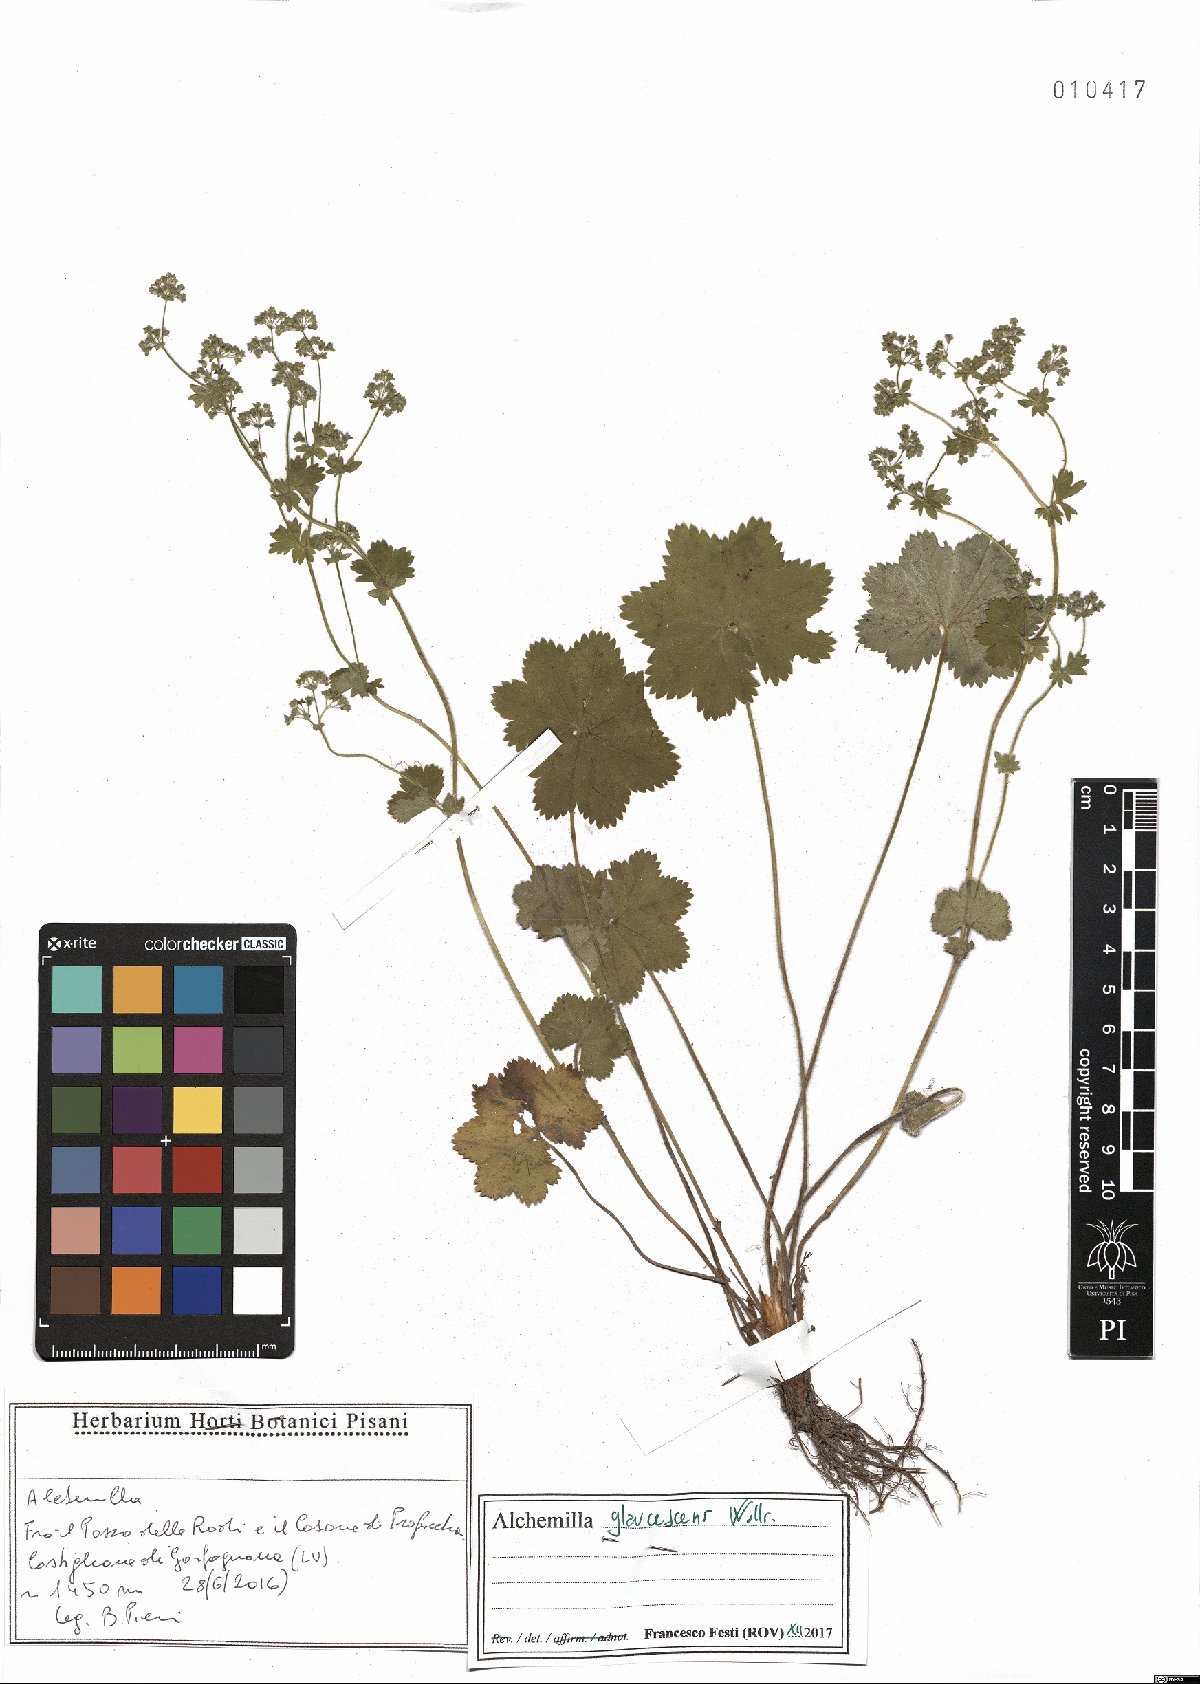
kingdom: Plantae
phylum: Tracheophyta
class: Magnoliopsida
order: Rosales
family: Rosaceae
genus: Alchemilla
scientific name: Alchemilla glaucescens
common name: Silky lady's mantle
